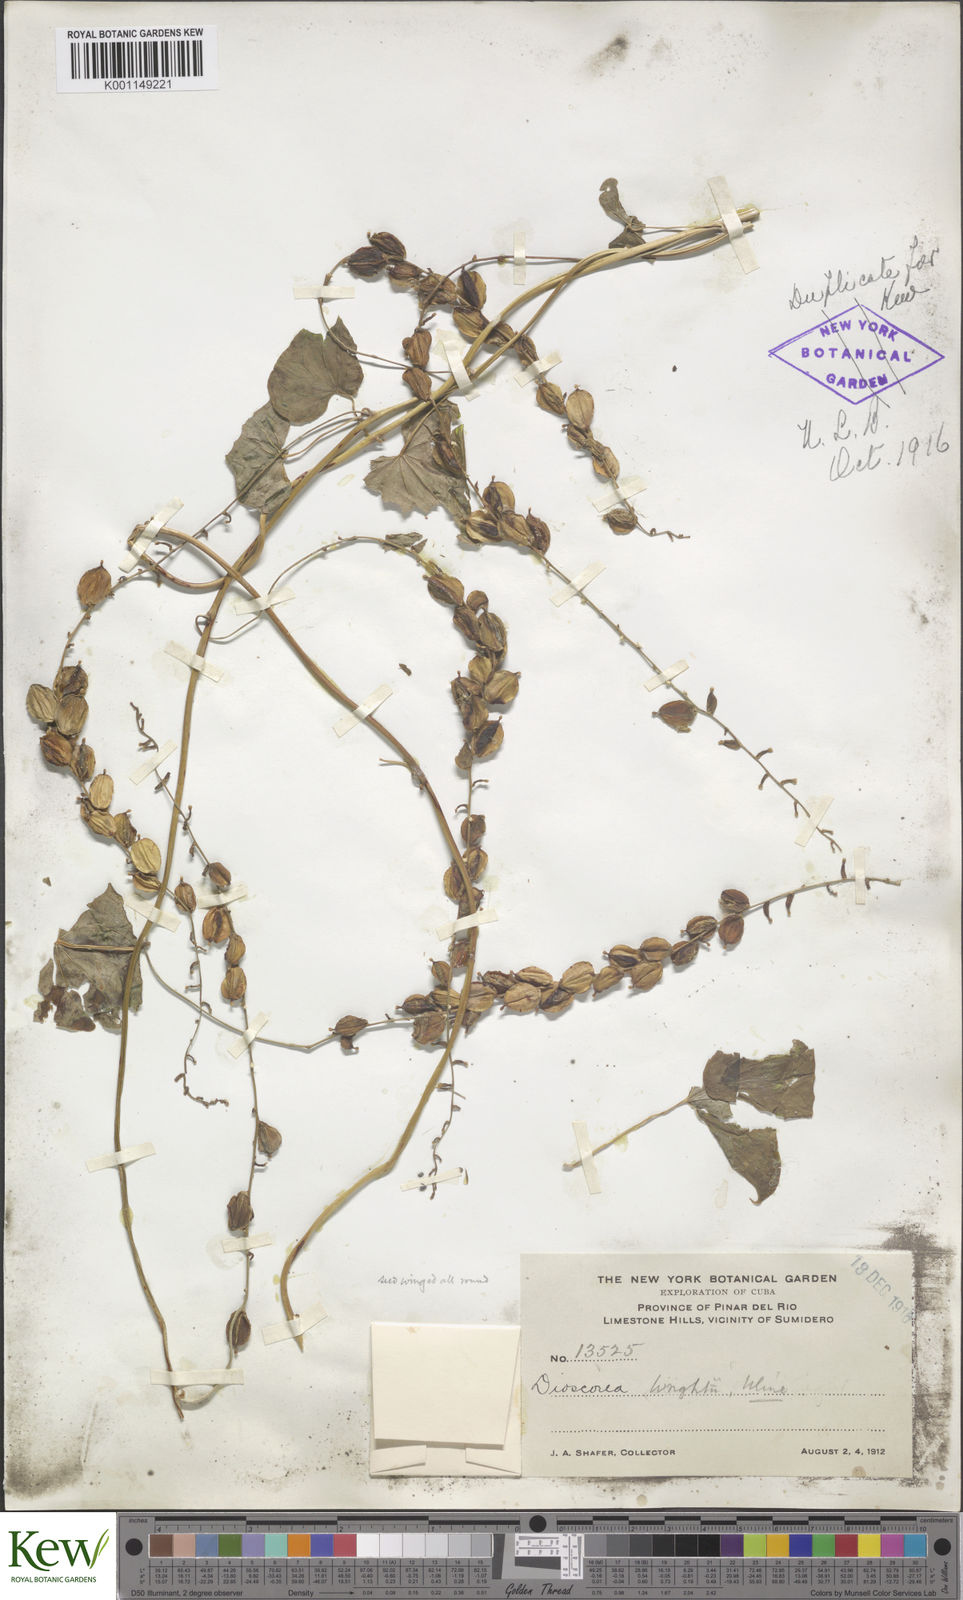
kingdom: Plantae
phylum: Tracheophyta
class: Liliopsida
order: Dioscoreales
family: Dioscoreaceae
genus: Dioscorea
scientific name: Dioscorea wrightii
